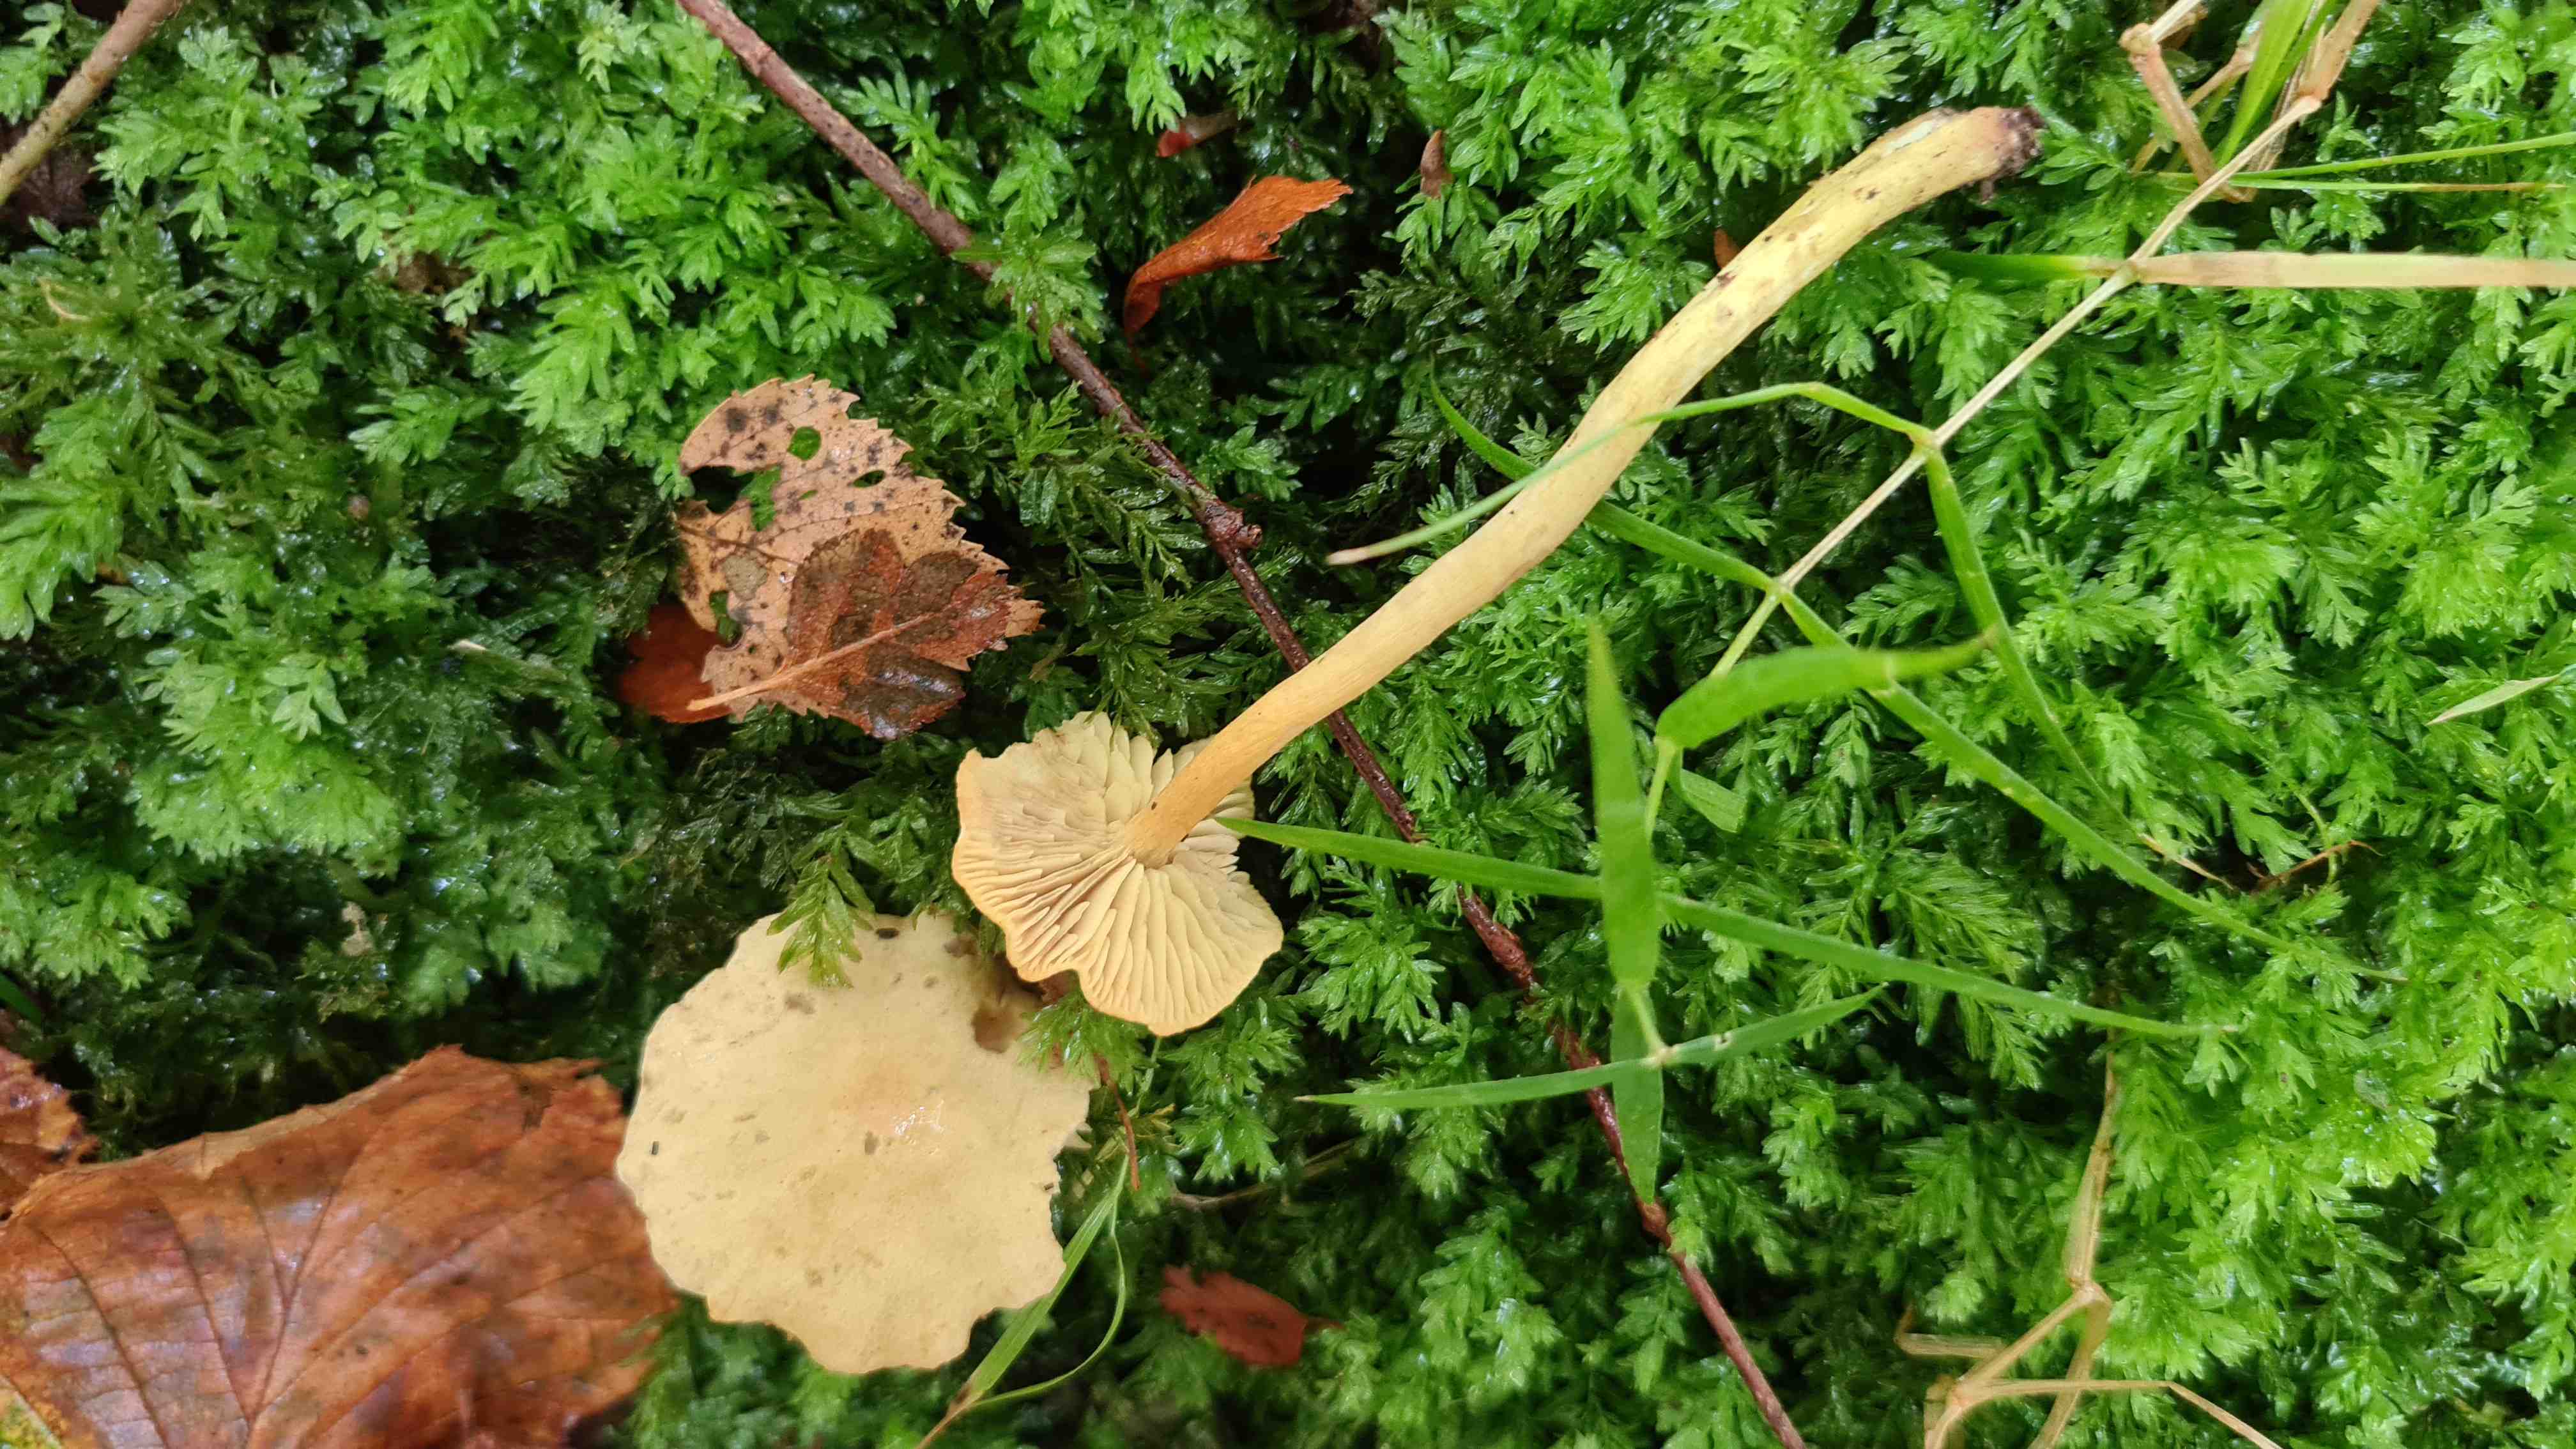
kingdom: Fungi
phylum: Basidiomycota
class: Agaricomycetes
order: Agaricales
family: Tricholomataceae
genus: Tricholoma
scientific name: Tricholoma sulphureum
